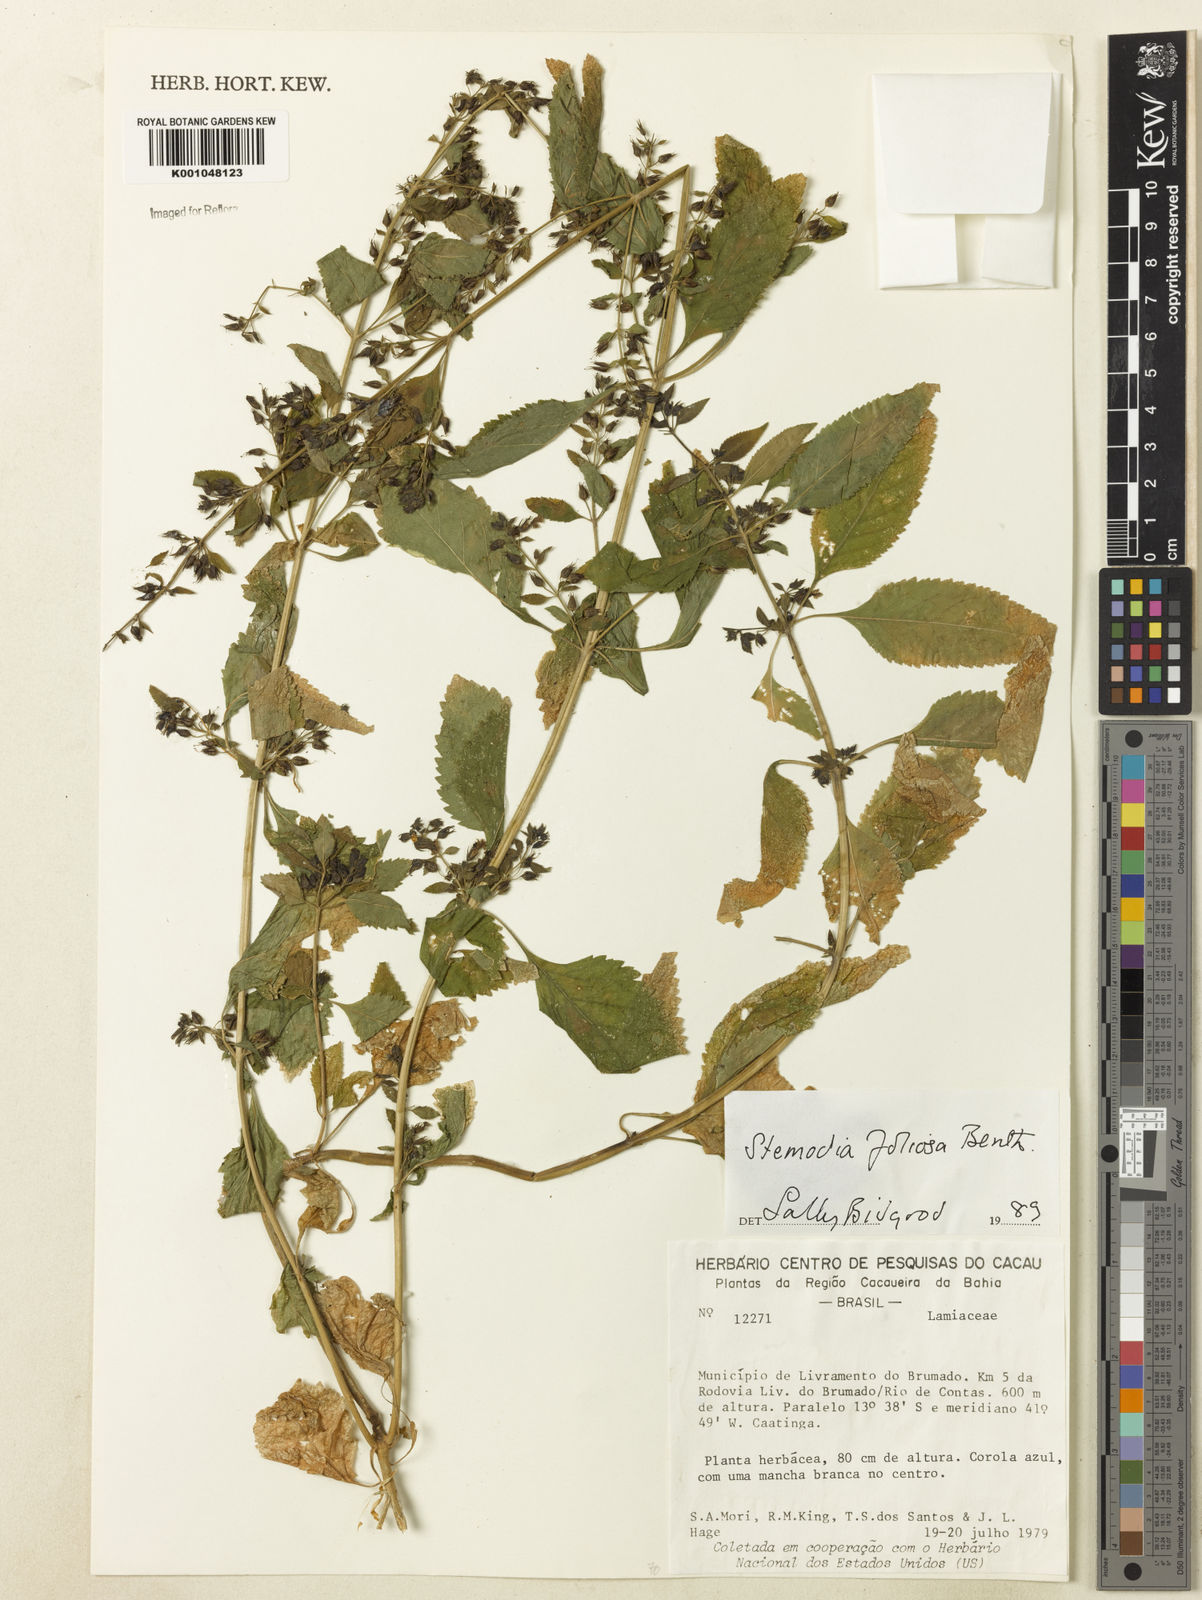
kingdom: Plantae
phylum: Tracheophyta
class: Magnoliopsida
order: Lamiales
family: Plantaginaceae
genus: Stemodia
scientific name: Stemodia foliosa
